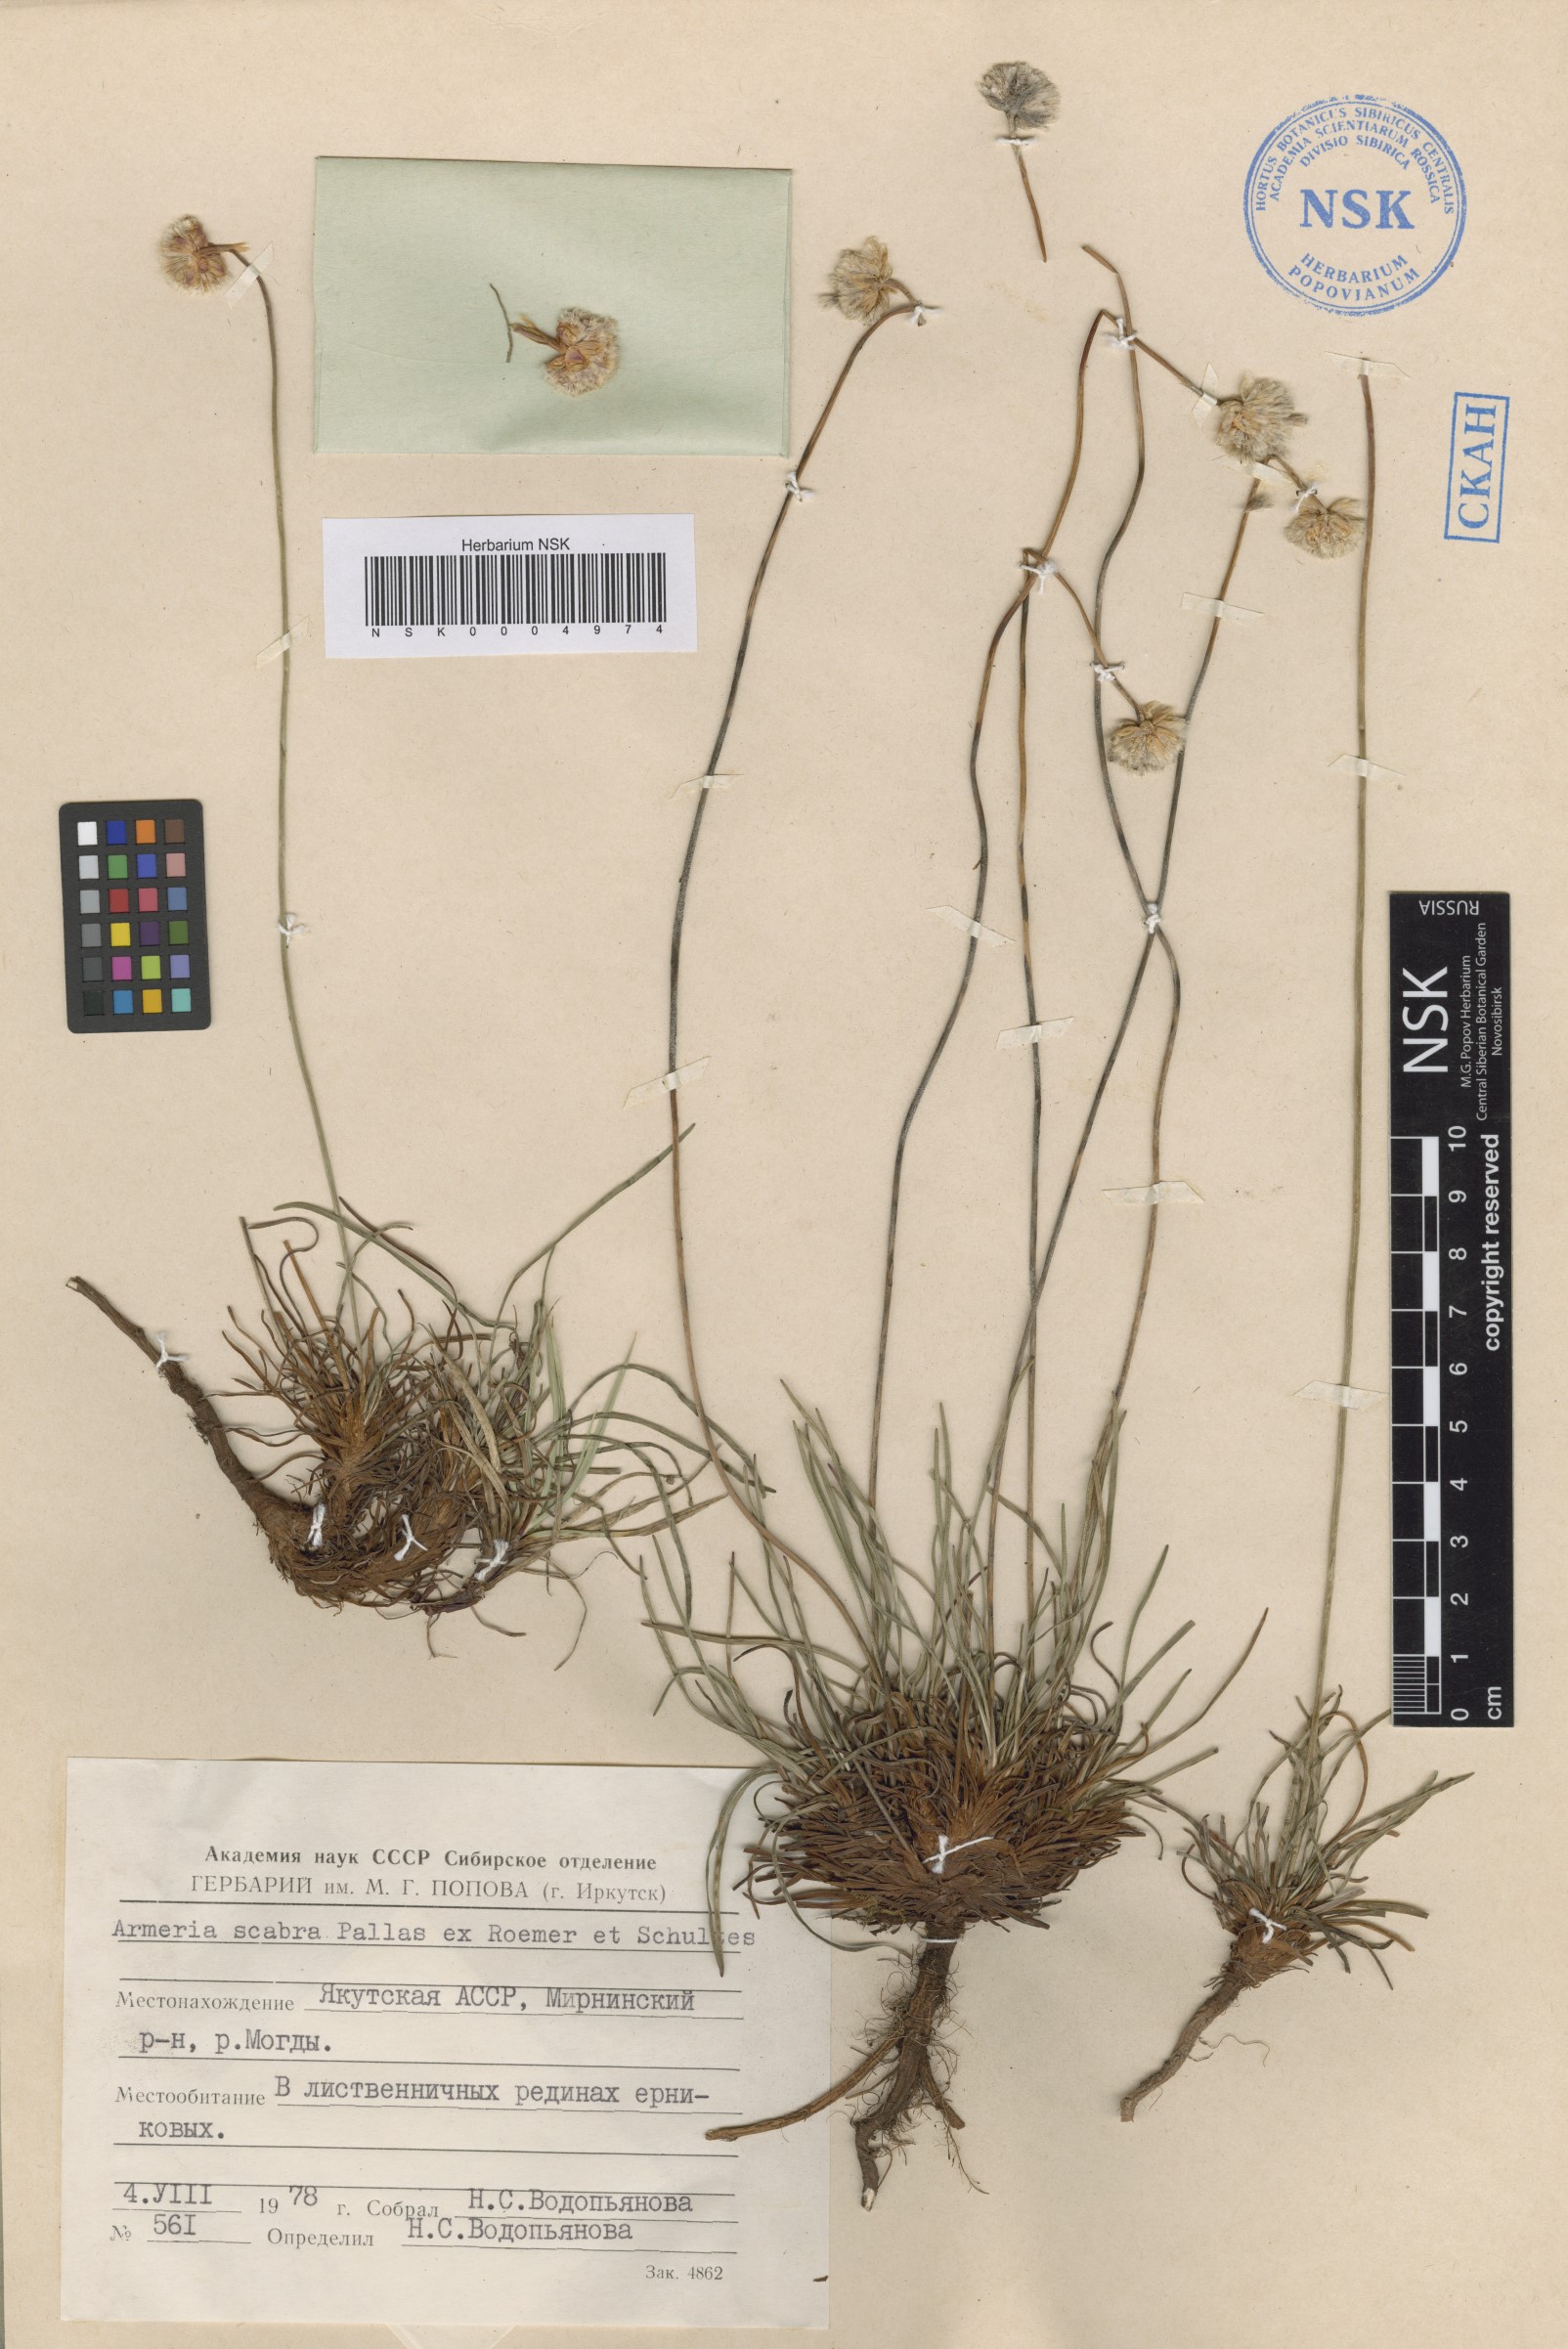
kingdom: Plantae
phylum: Tracheophyta
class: Magnoliopsida
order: Caryophyllales
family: Plumbaginaceae
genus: Armeria
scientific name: Armeria maritima
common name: Thrift
